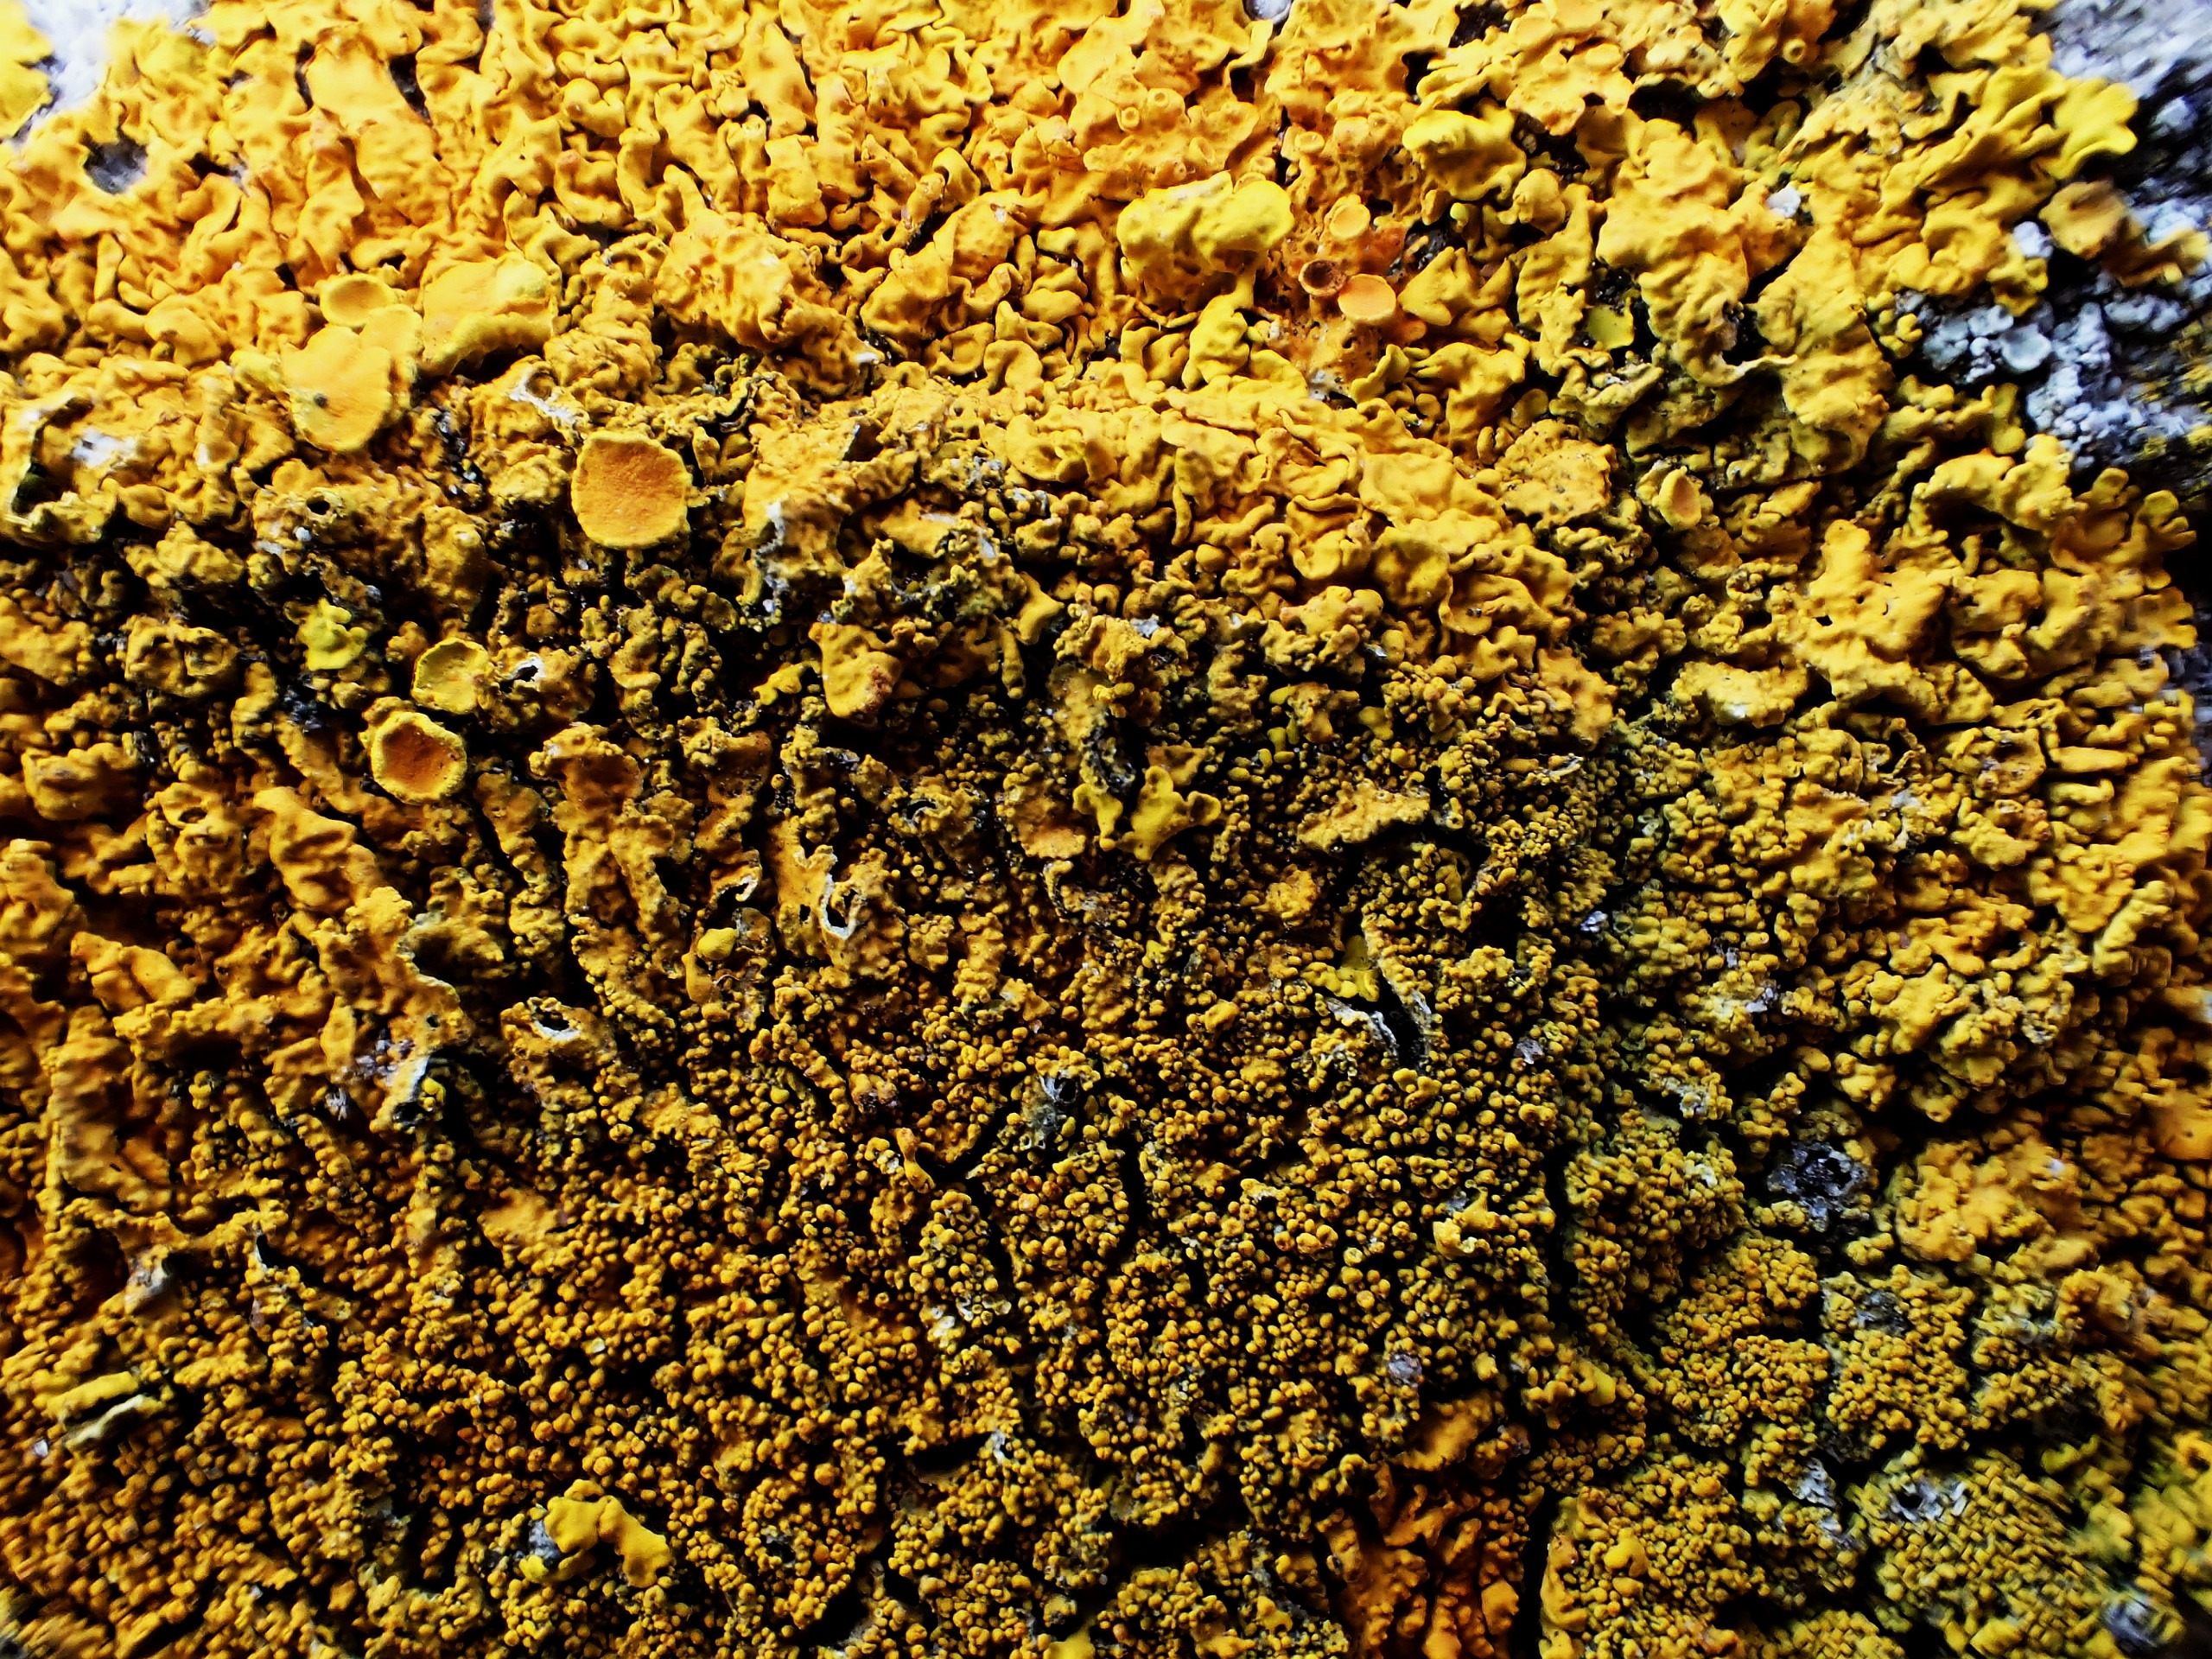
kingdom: Fungi
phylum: Ascomycota
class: Lecanoromycetes
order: Teloschistales
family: Teloschistaceae
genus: Xanthoria
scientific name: Xanthoria calcicola
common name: Vortet væggelav
